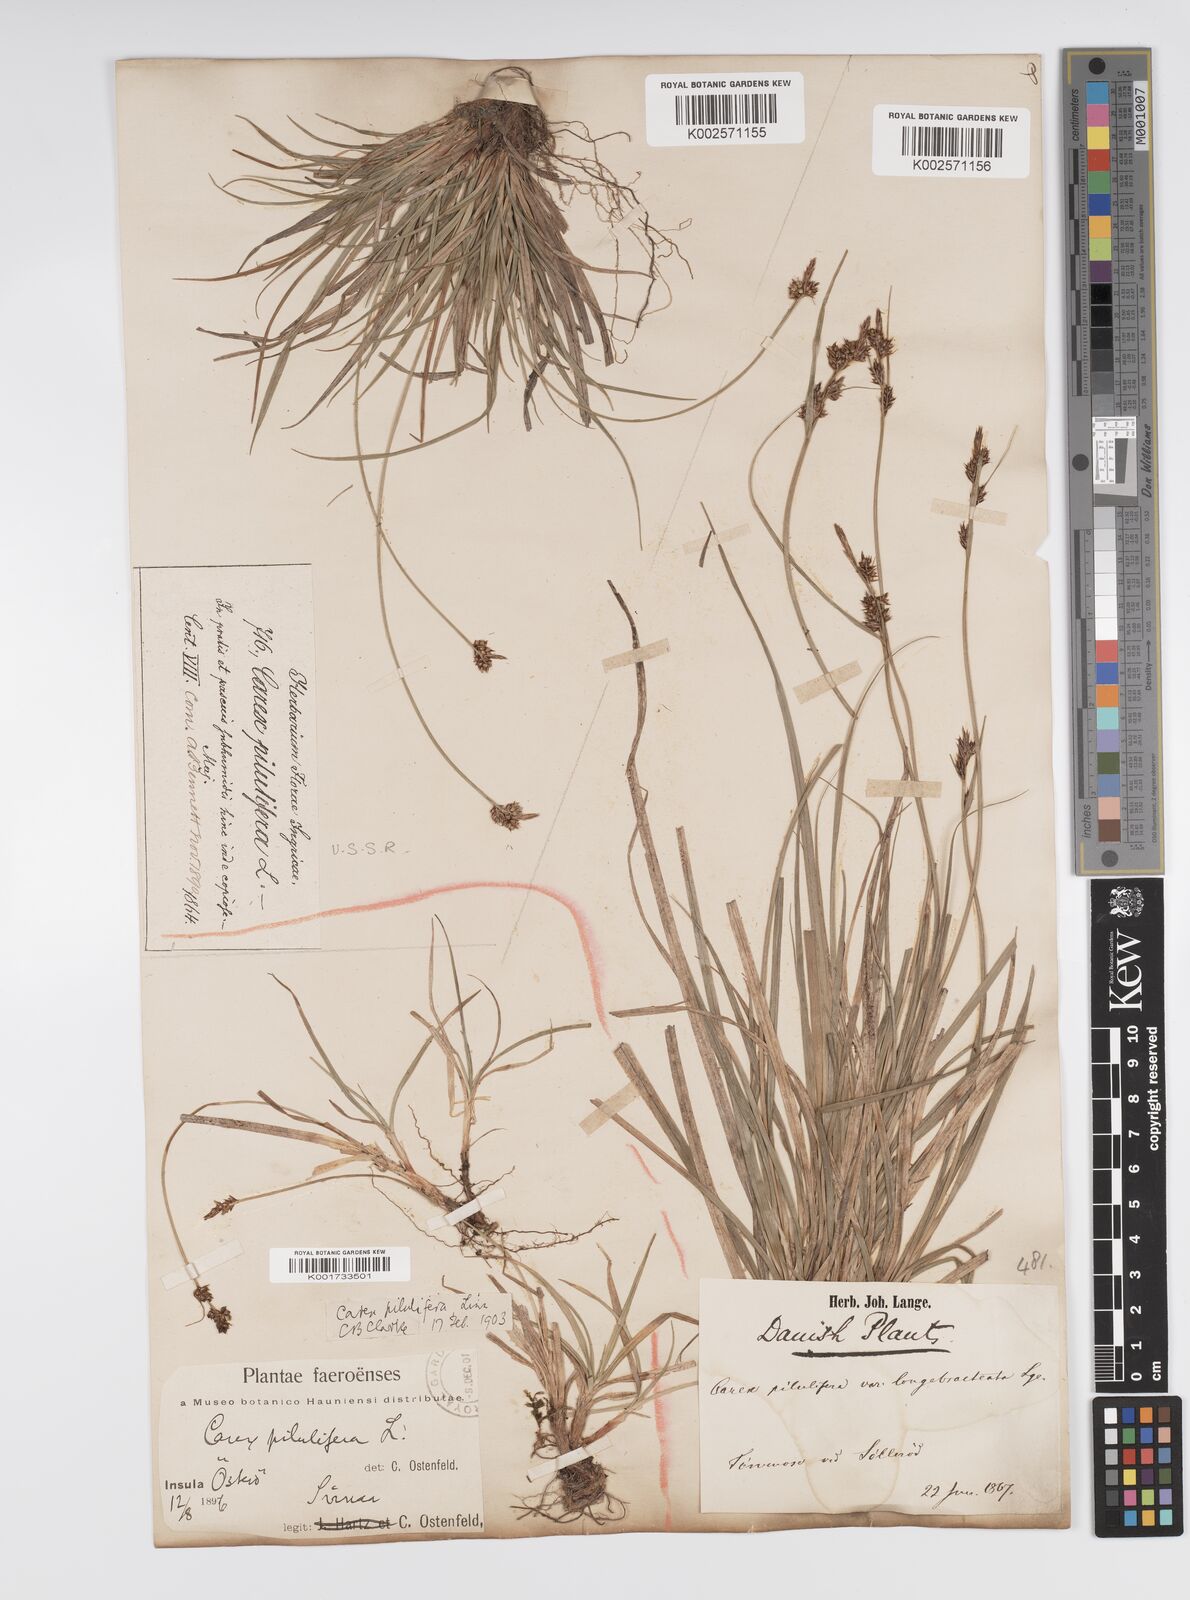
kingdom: Plantae
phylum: Tracheophyta
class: Liliopsida
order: Poales
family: Cyperaceae
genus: Carex
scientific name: Carex pilulifera
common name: Pill sedge
